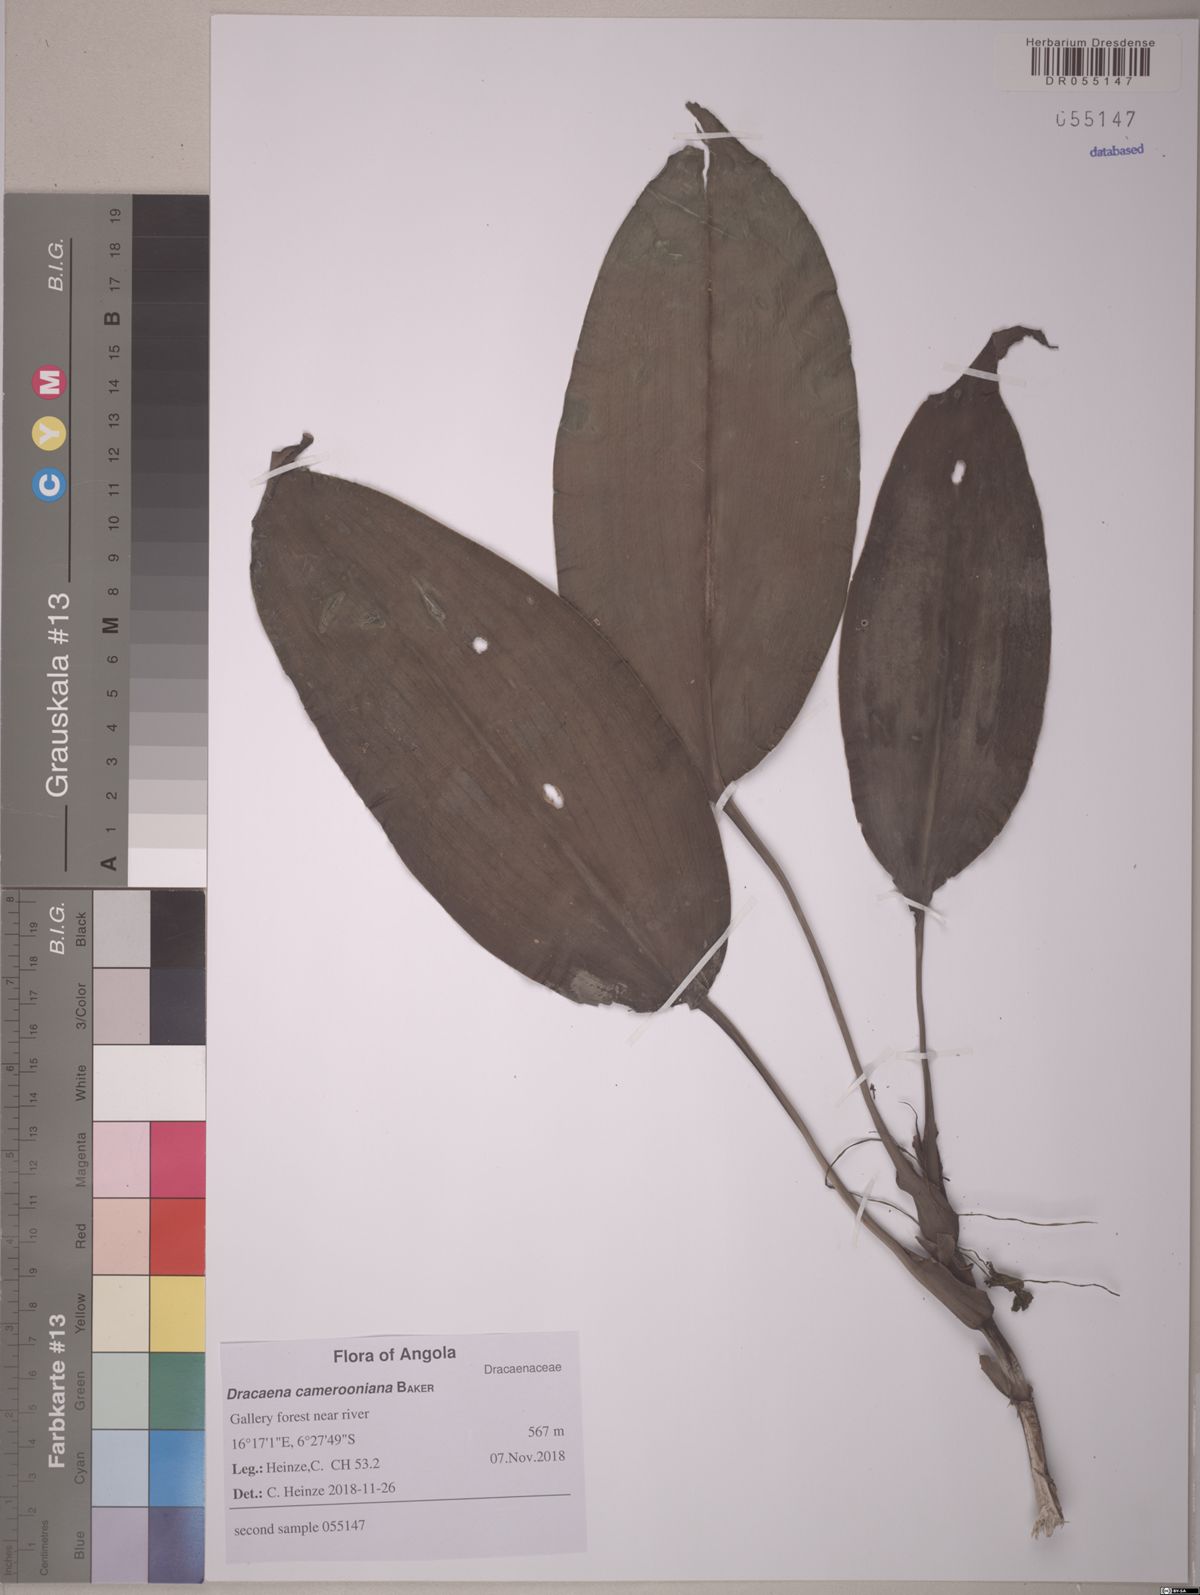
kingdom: Plantae
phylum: Tracheophyta
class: Liliopsida
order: Asparagales
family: Asparagaceae
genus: Dracaena
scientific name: Dracaena camerooniana
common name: Dragon tree
